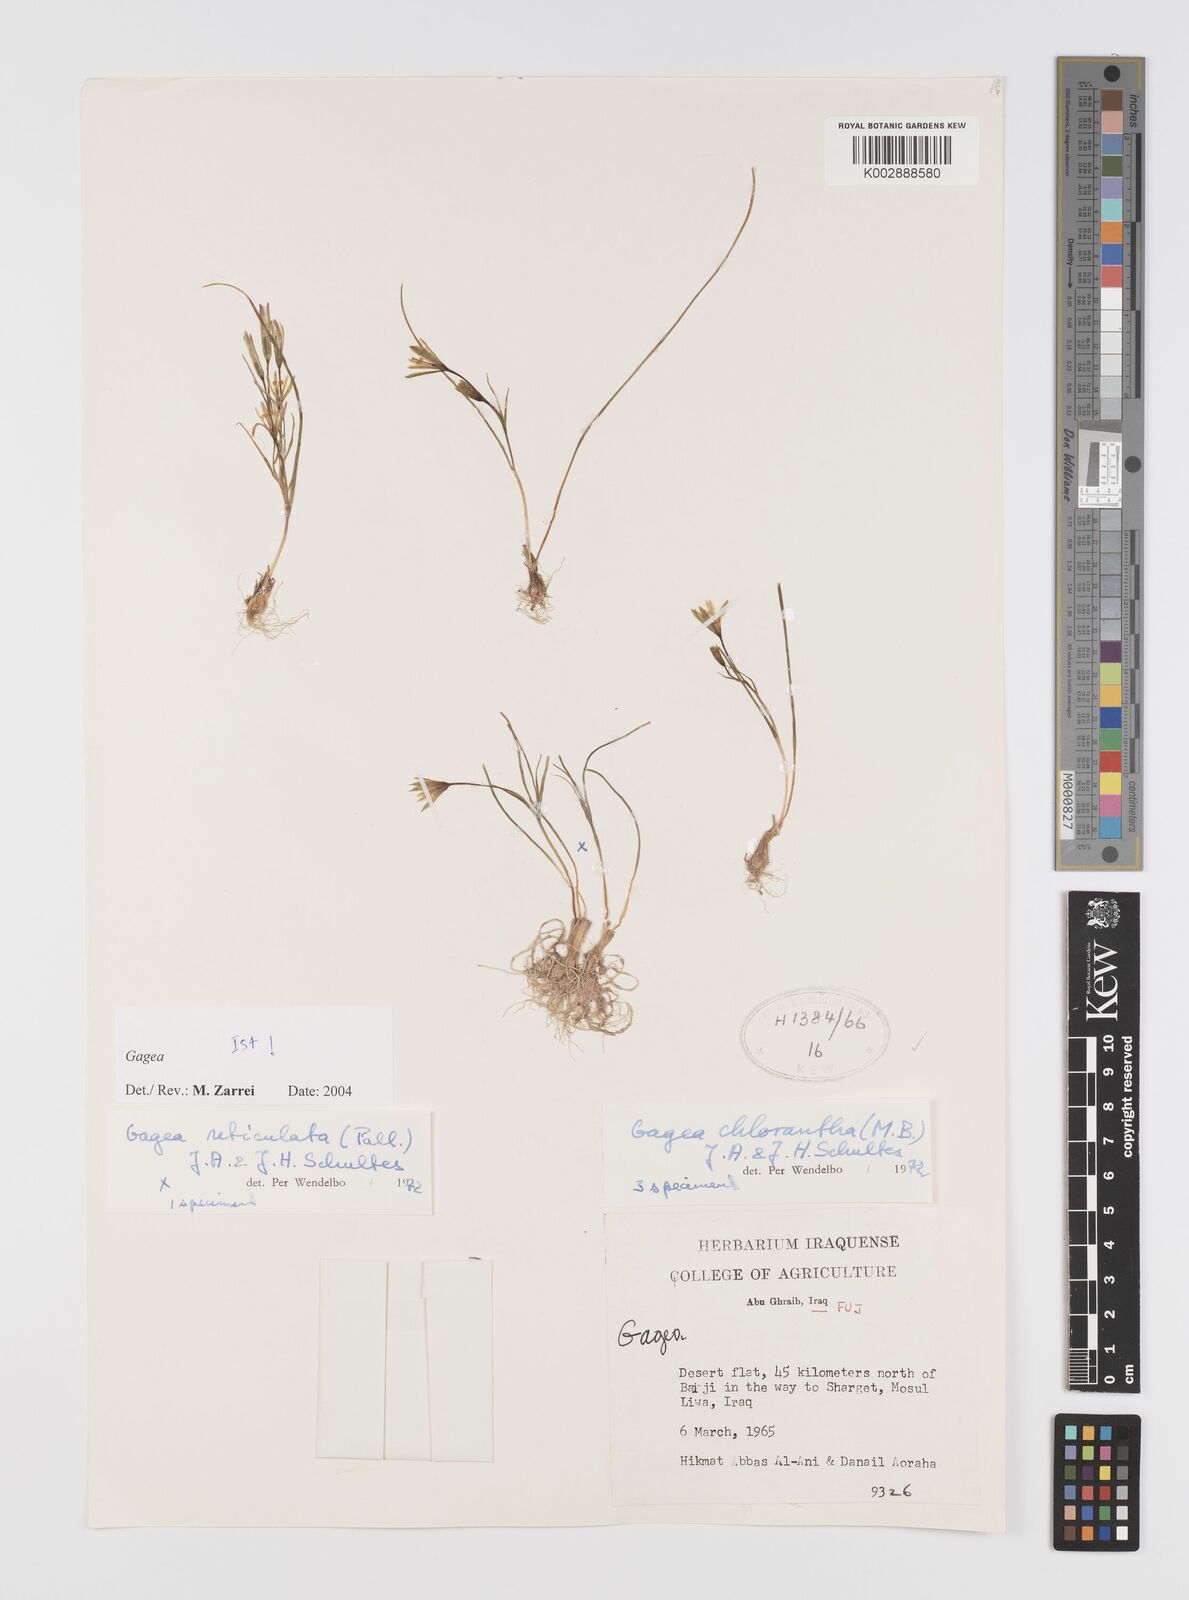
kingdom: Plantae
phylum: Tracheophyta
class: Liliopsida
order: Liliales
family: Liliaceae
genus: Gagea
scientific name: Gagea chlorantha
